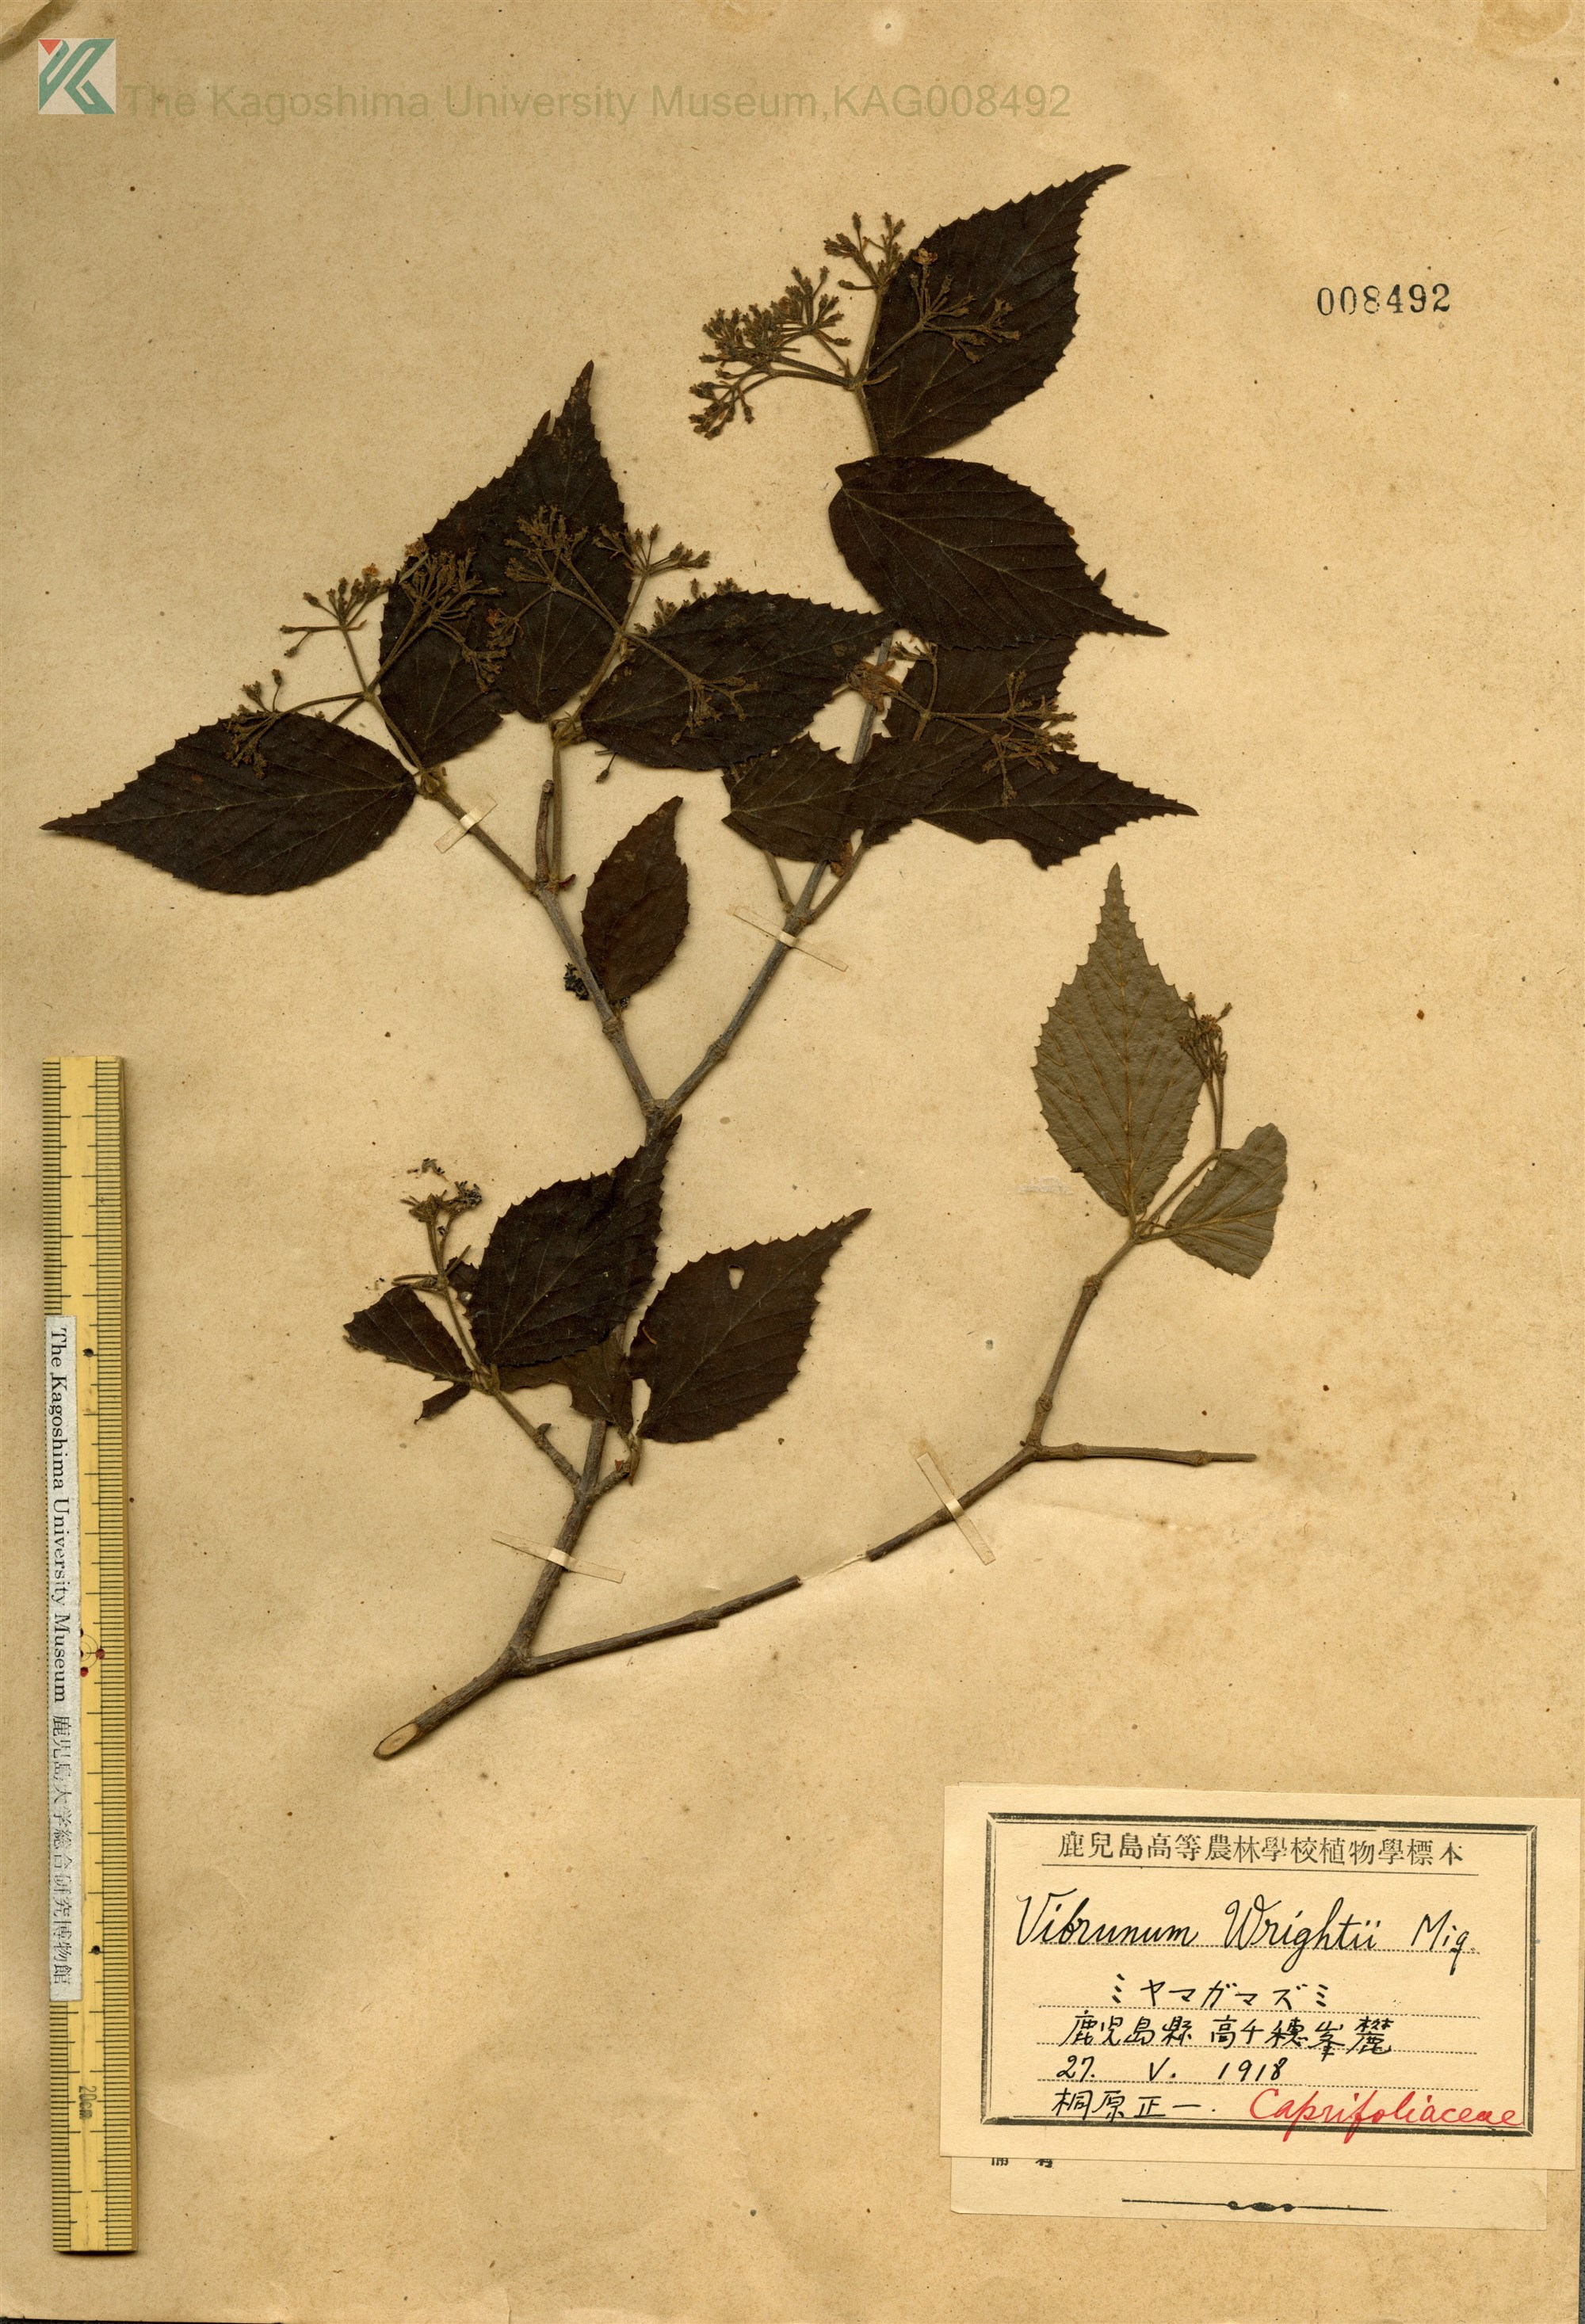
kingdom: Plantae
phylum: Tracheophyta
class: Magnoliopsida
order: Dipsacales
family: Viburnaceae
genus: Viburnum
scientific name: Viburnum erosum
